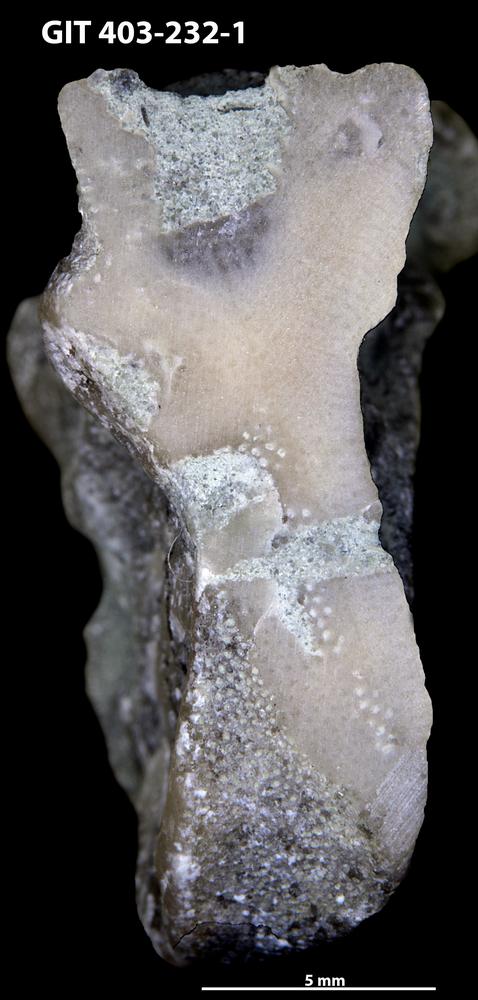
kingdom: Animalia
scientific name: Animalia
